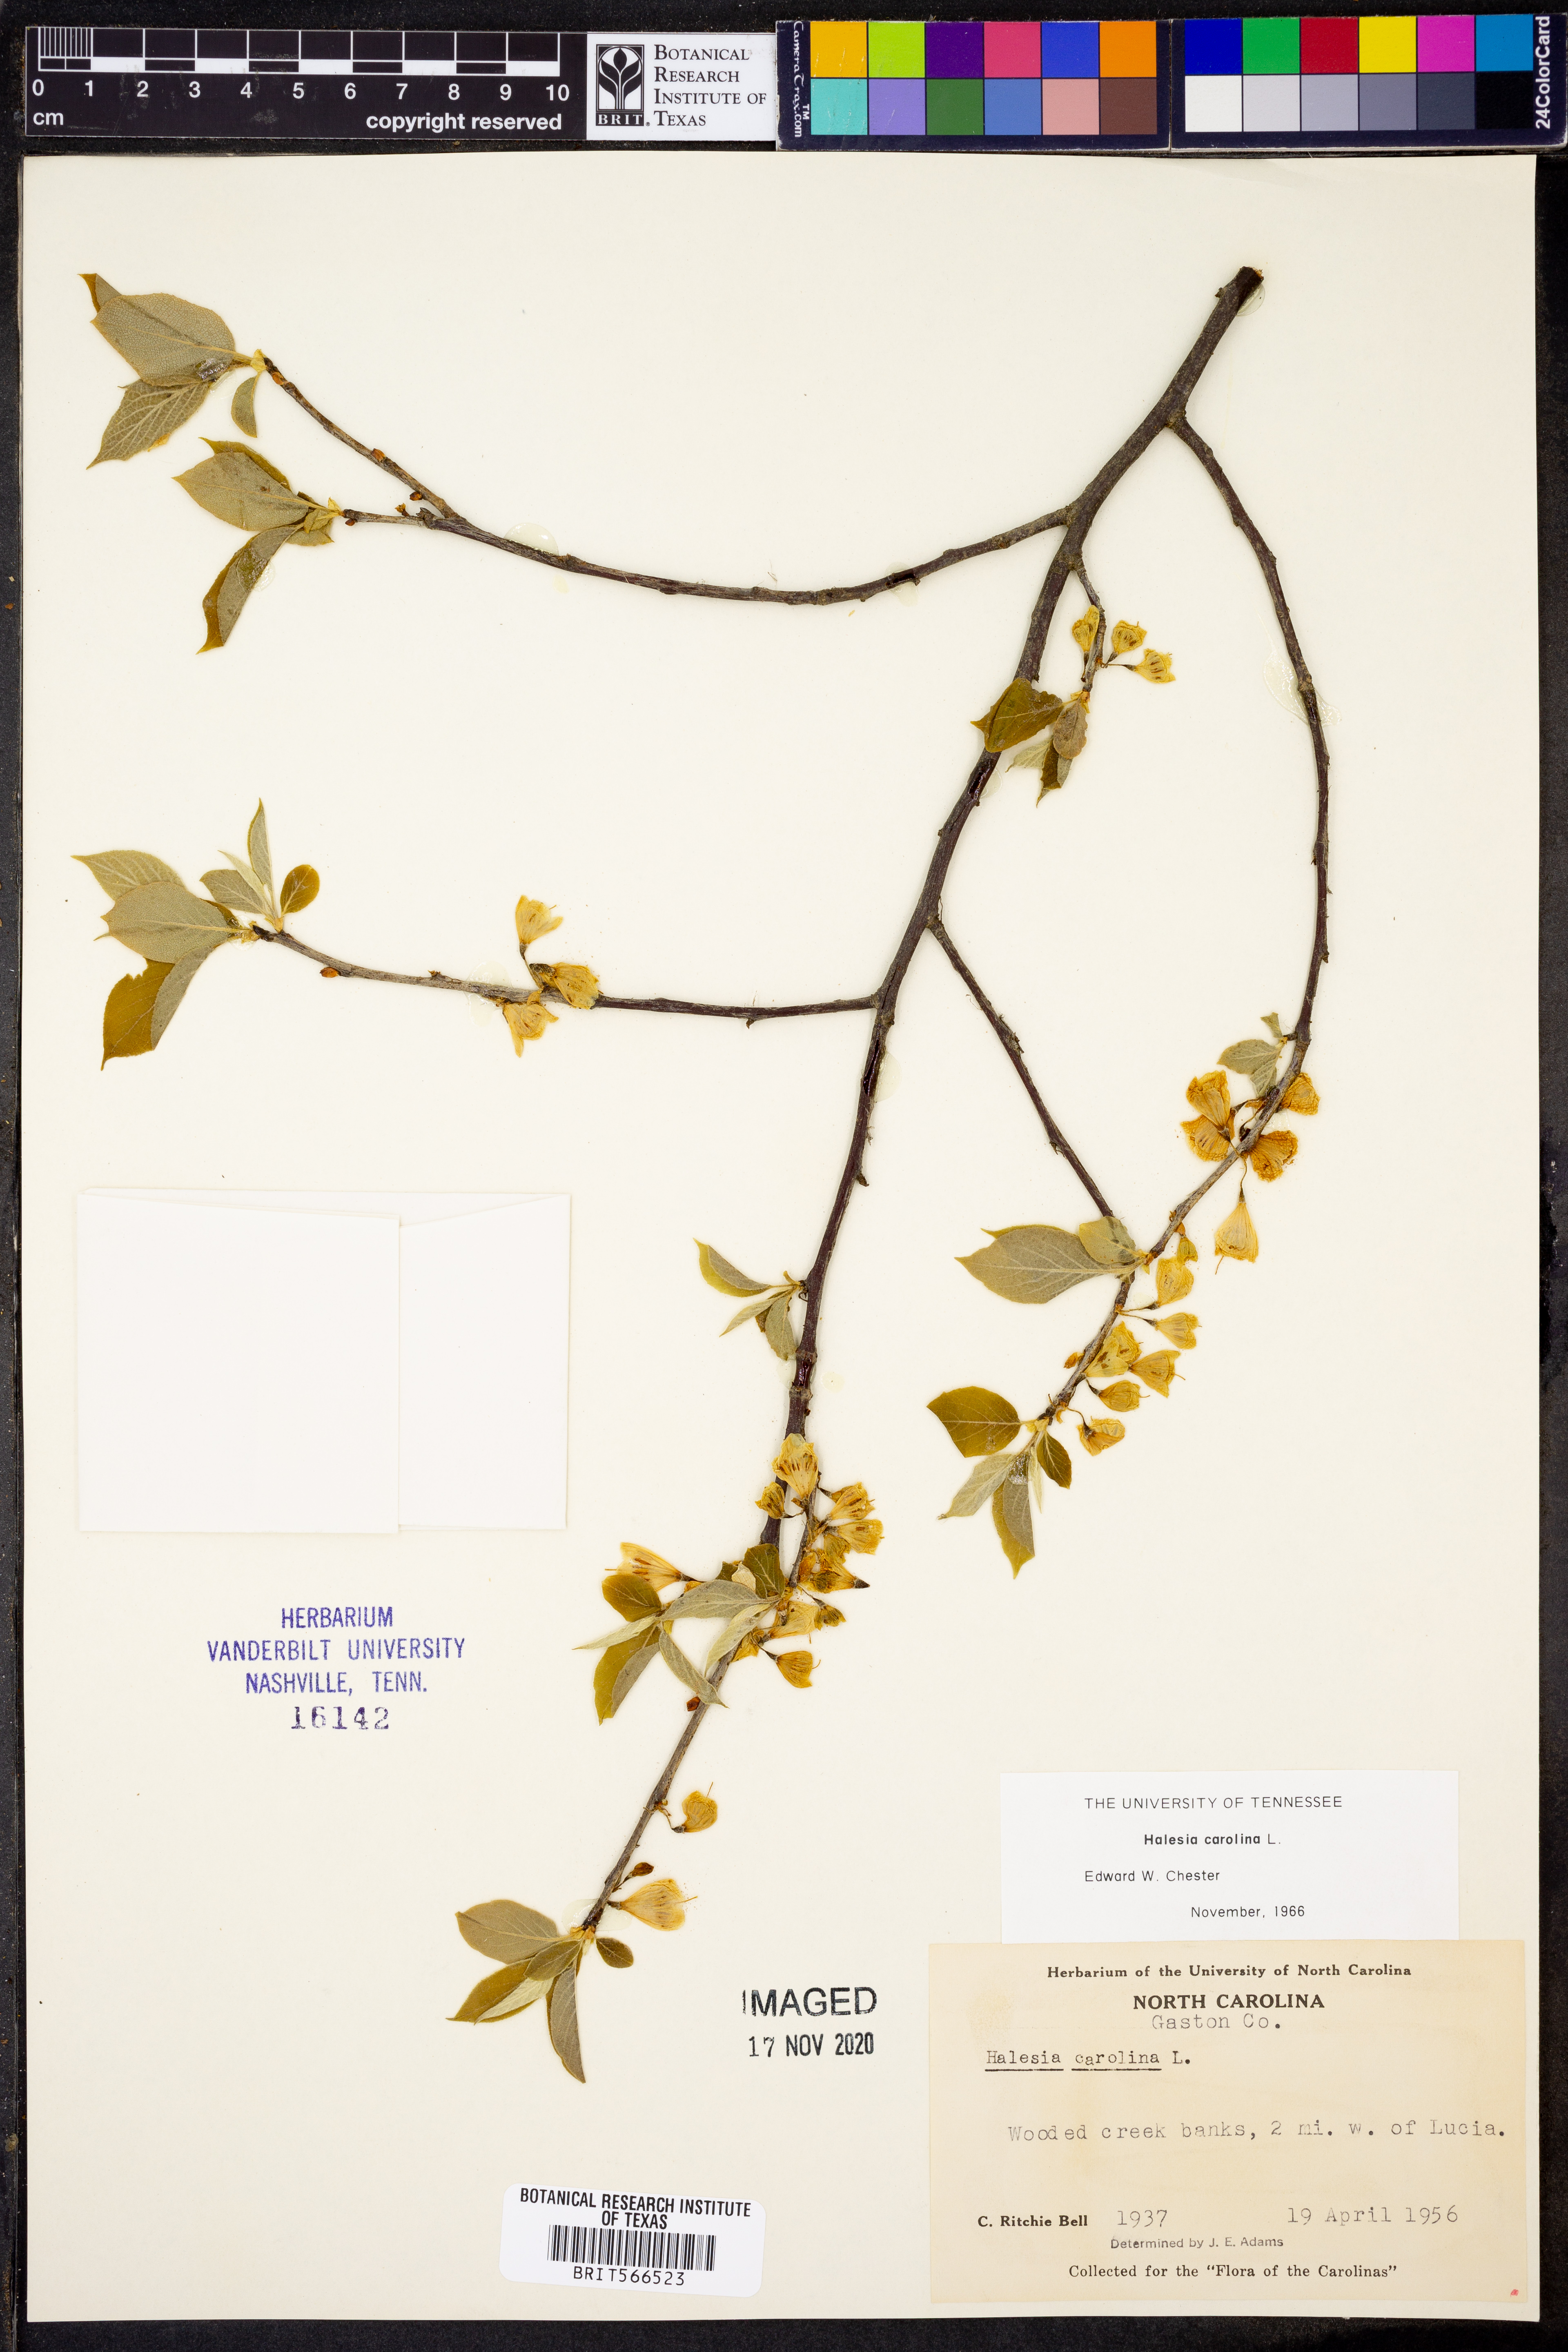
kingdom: Plantae
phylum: Tracheophyta
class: Magnoliopsida
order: Ericales
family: Styracaceae
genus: Halesia
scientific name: Halesia carolina
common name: Carolina silverbell
